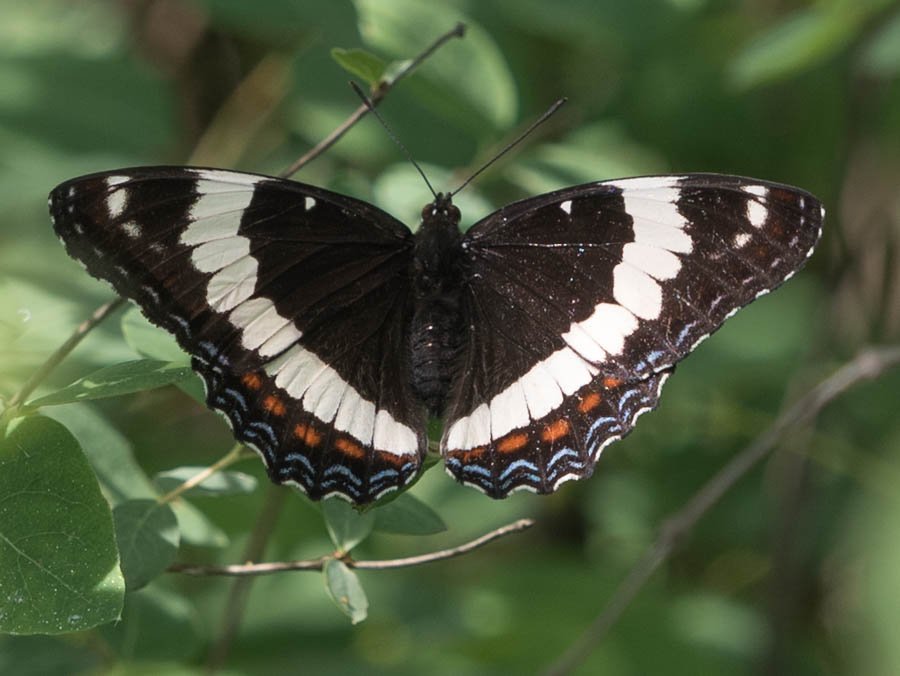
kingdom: Animalia
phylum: Arthropoda
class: Insecta
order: Lepidoptera
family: Nymphalidae
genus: Limenitis
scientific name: Limenitis arthemis
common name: Red-spotted Admiral
